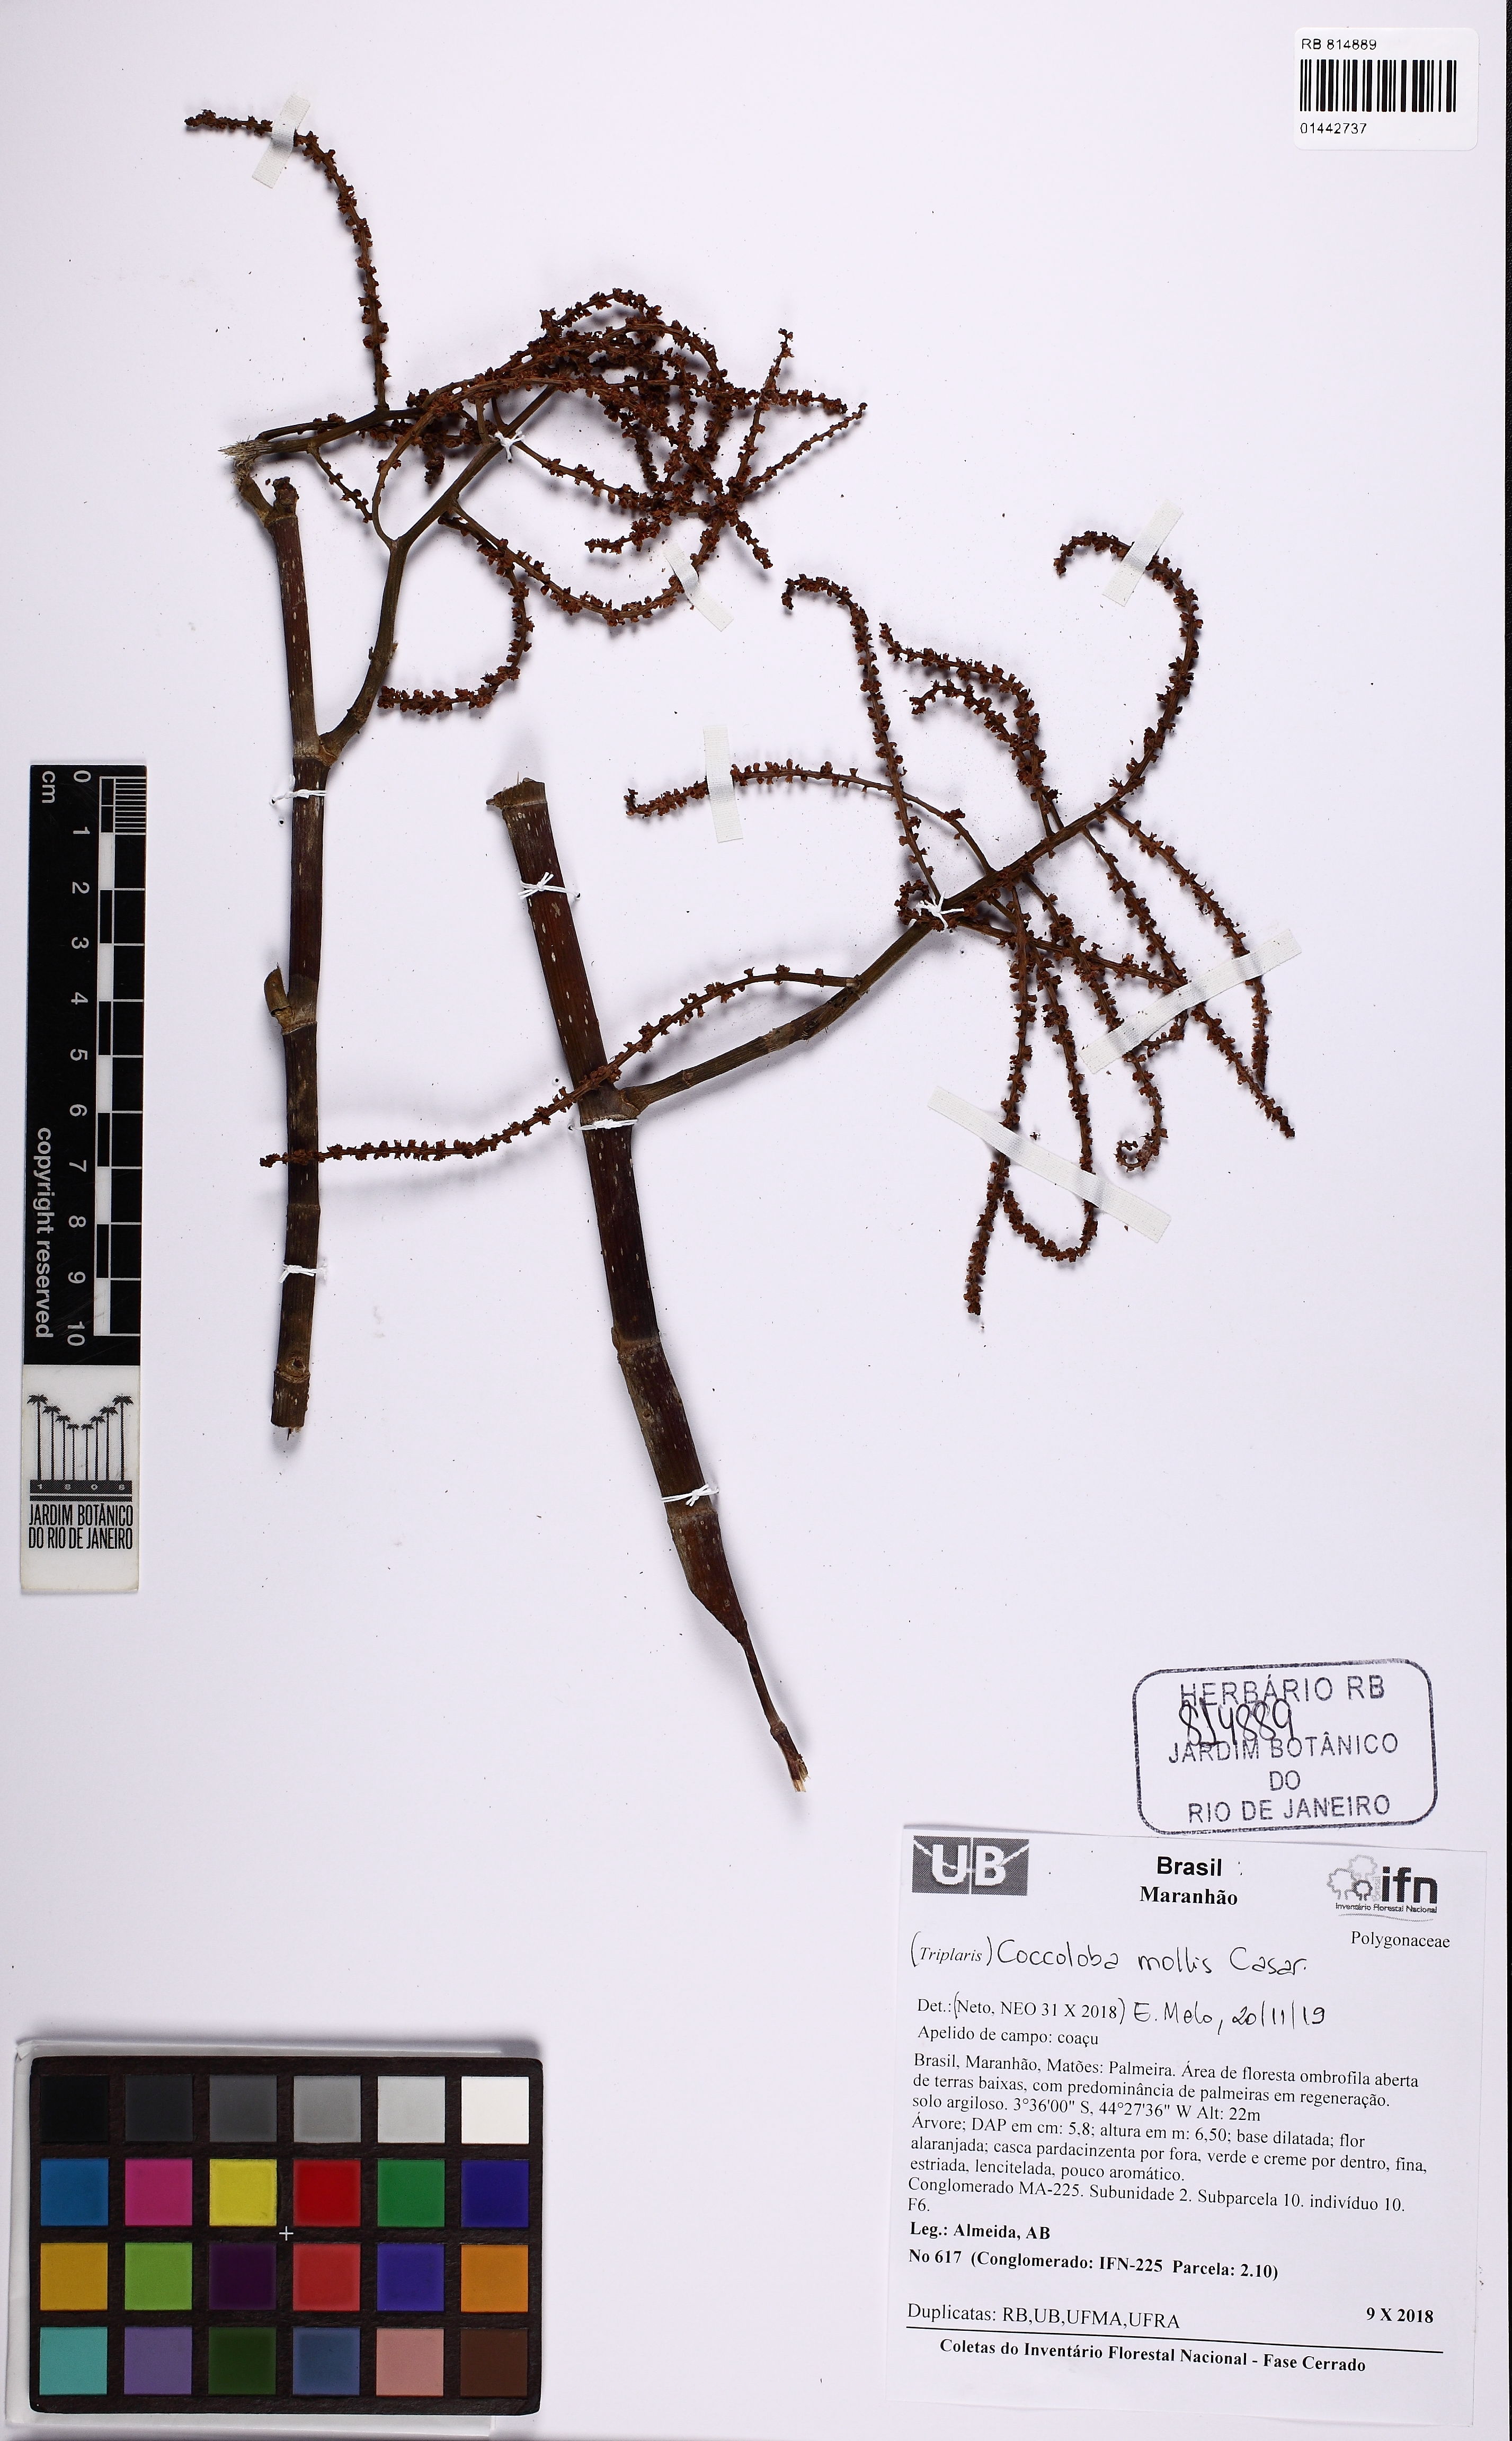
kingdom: Plantae
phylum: Tracheophyta
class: Magnoliopsida
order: Caryophyllales
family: Polygonaceae
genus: Coccoloba
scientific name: Coccoloba mollis
